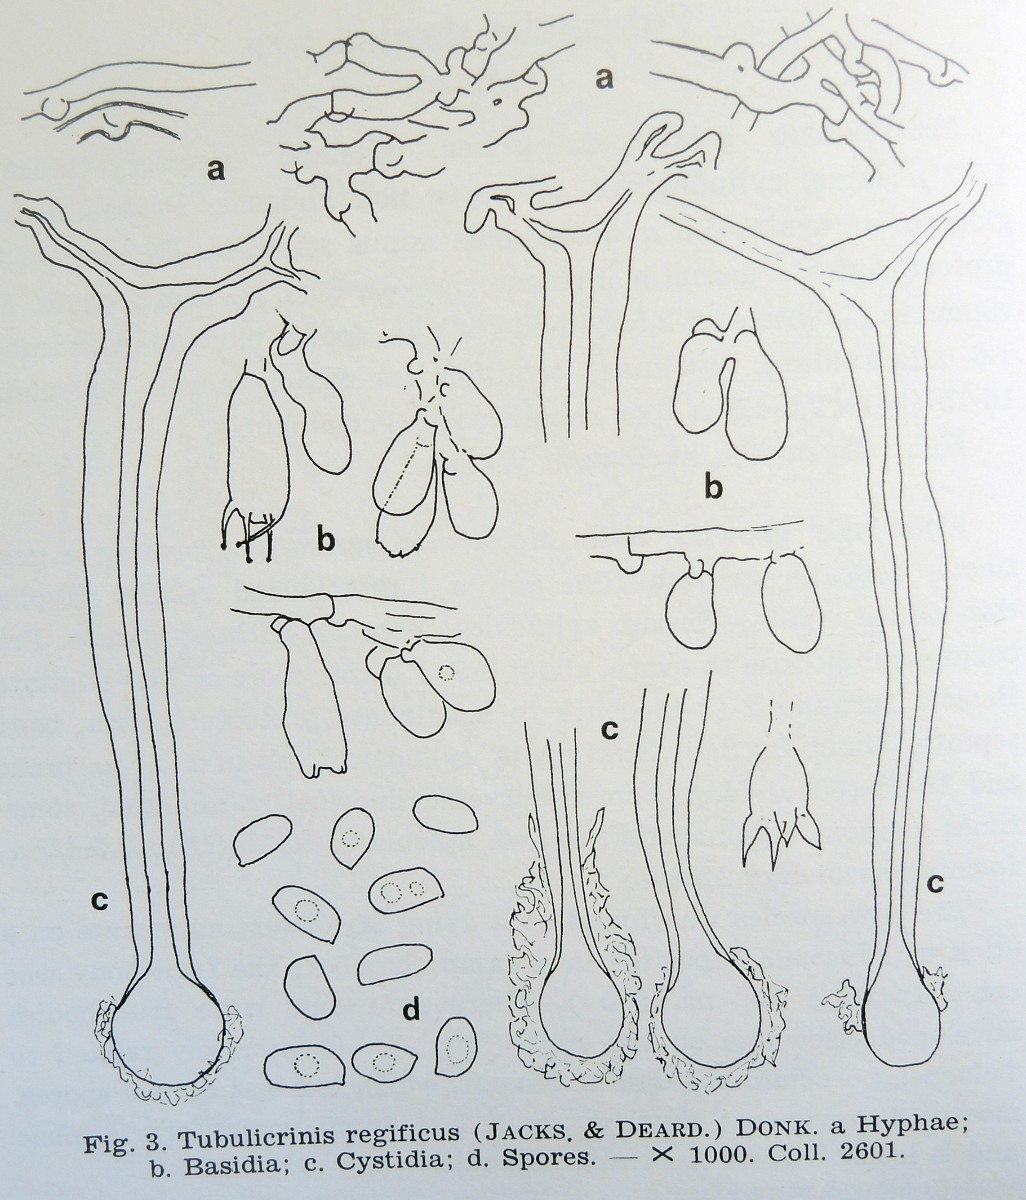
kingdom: Fungi
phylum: Basidiomycota
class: Agaricomycetes
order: Hymenochaetales
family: Hymenochaetaceae
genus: Tubulicrinis
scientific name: Tubulicrinis regificus
